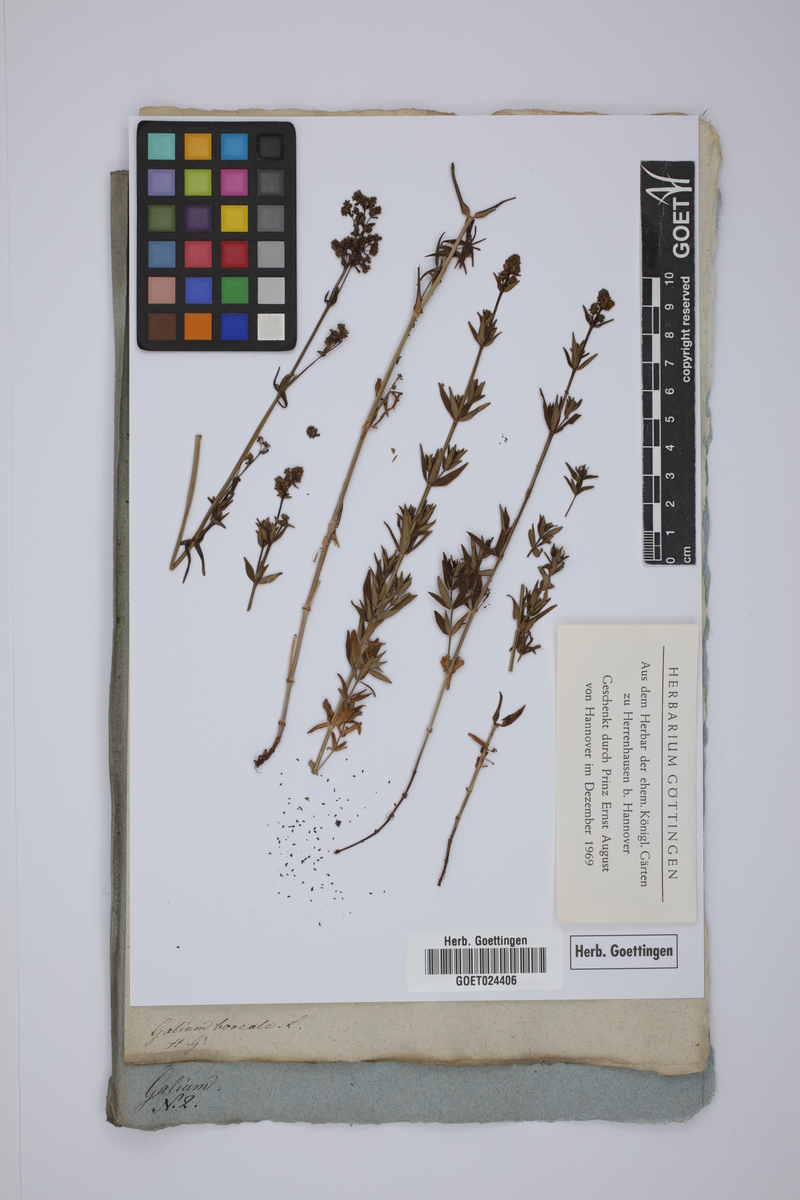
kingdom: Plantae
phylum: Tracheophyta
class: Magnoliopsida
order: Gentianales
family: Rubiaceae
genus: Galium
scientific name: Galium boreale
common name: Northern bedstraw
